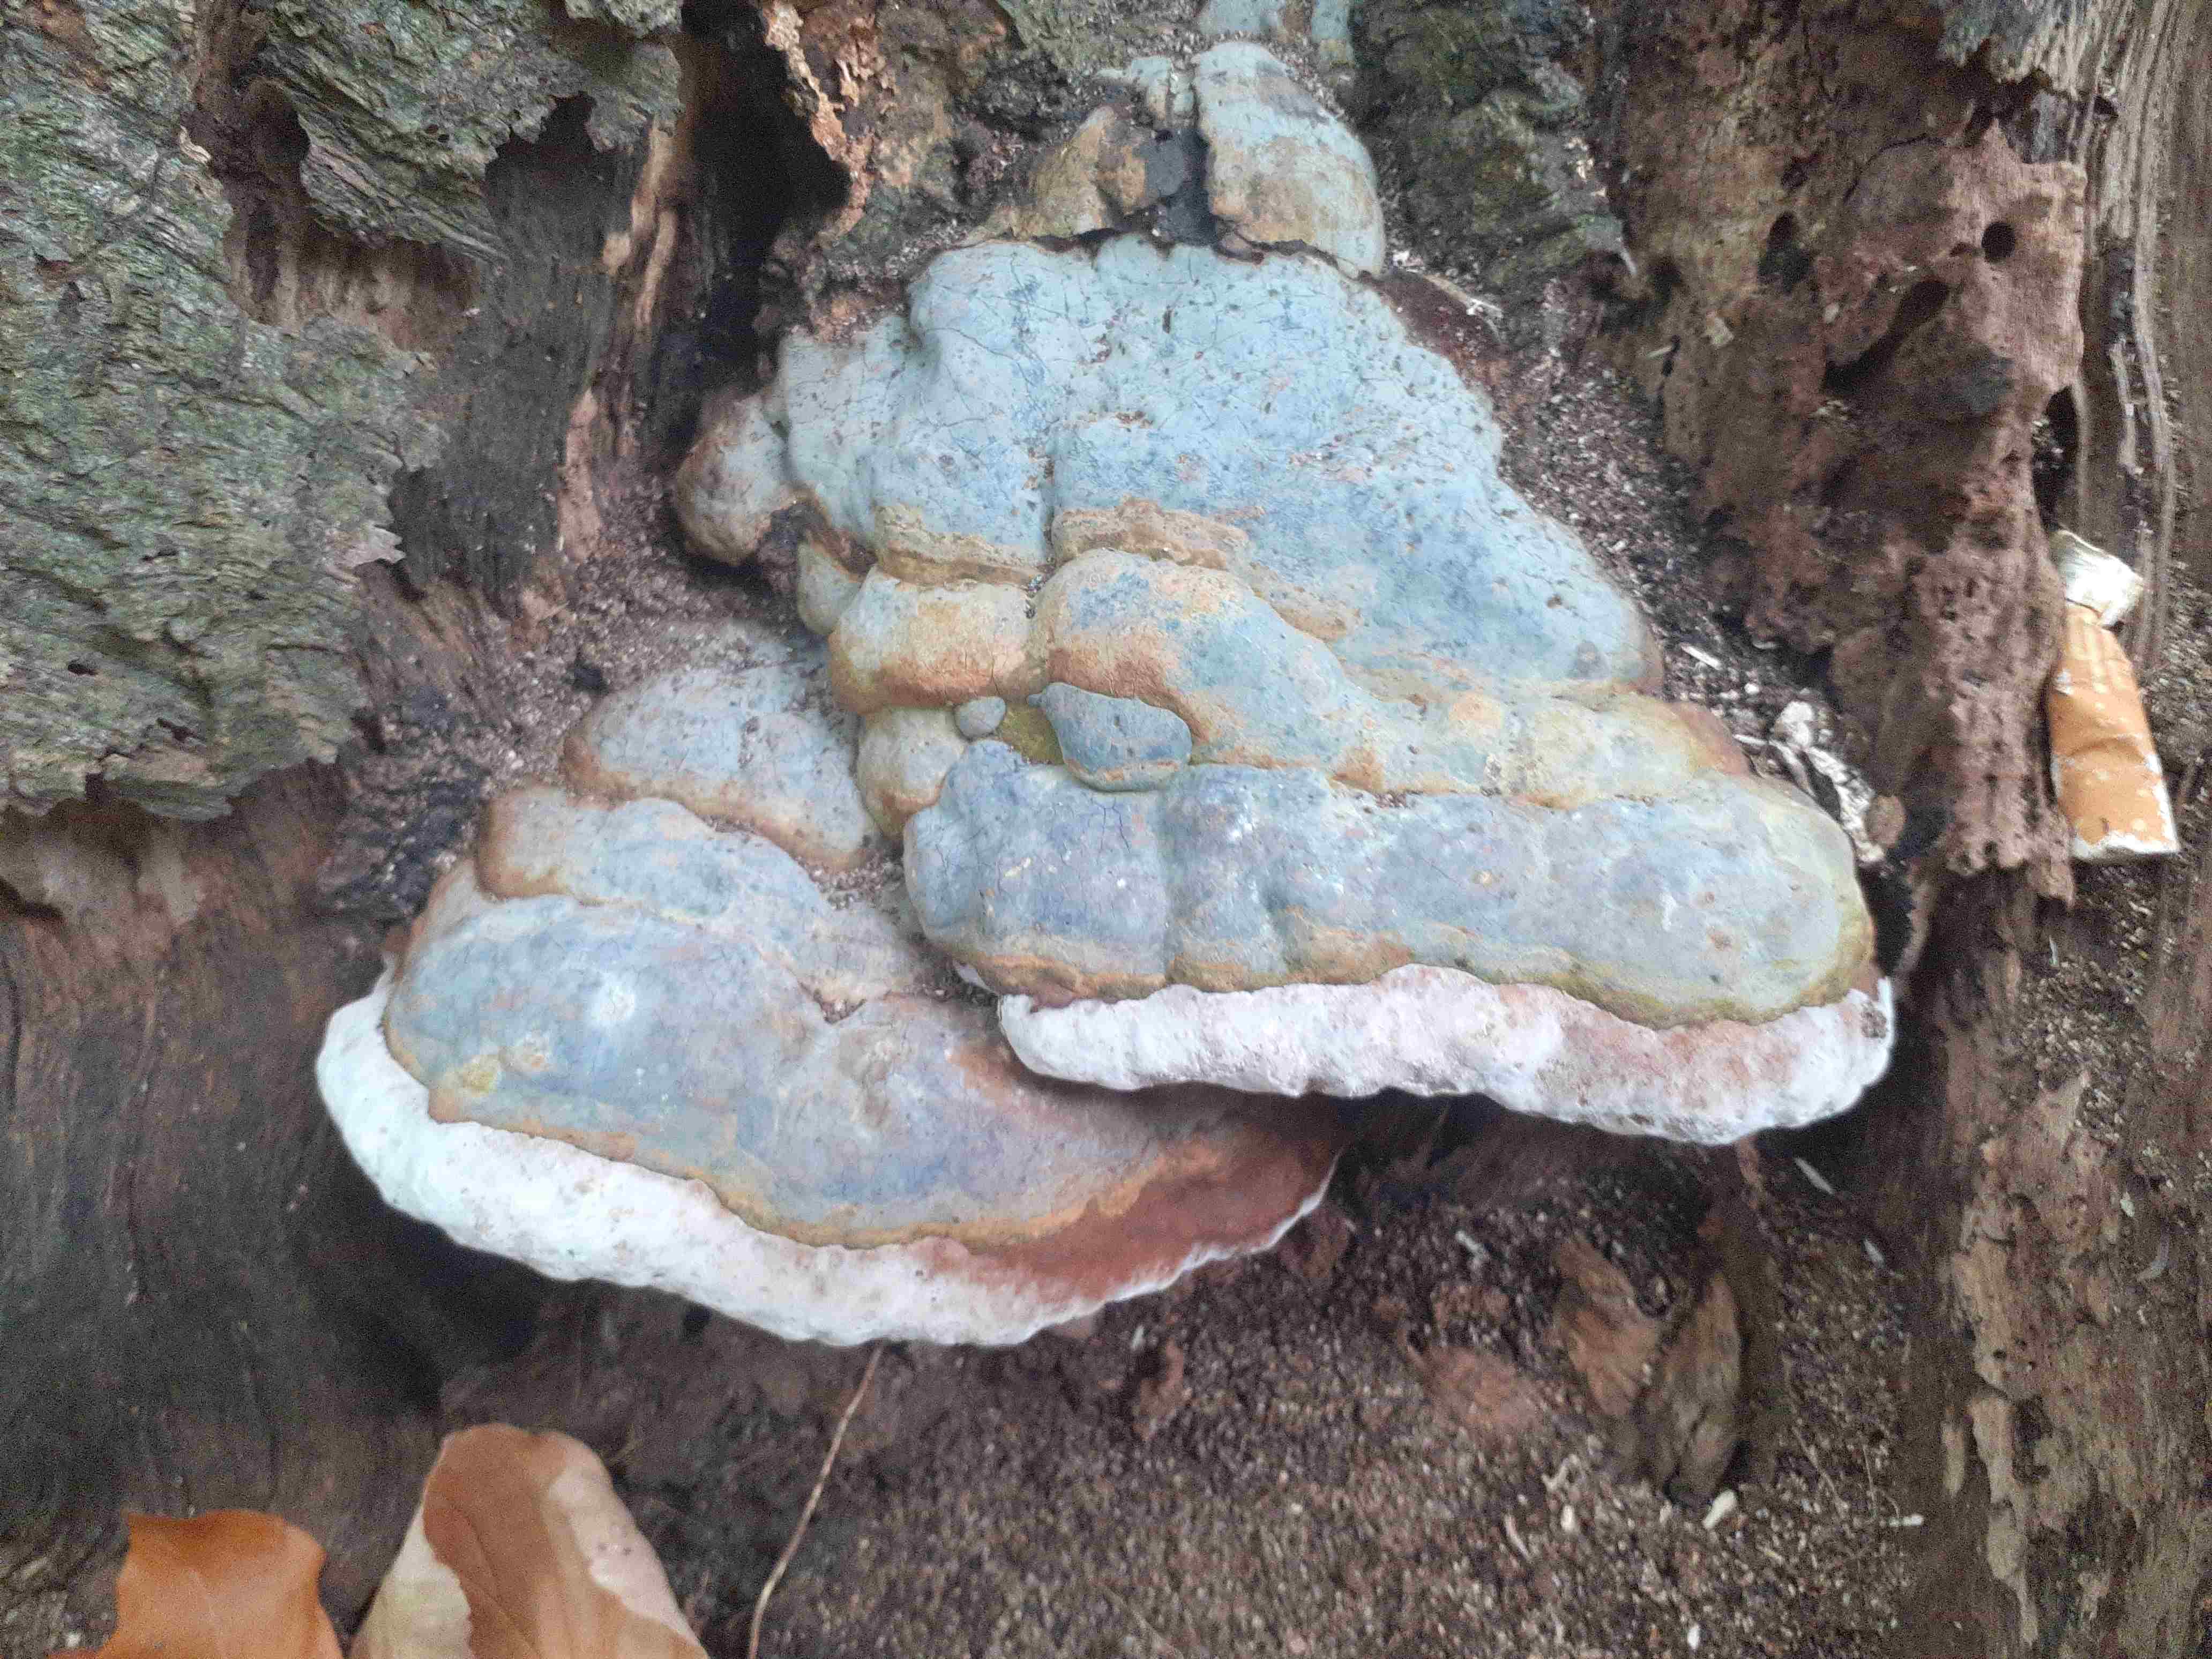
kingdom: Fungi
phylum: Basidiomycota
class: Agaricomycetes
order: Polyporales
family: Polyporaceae
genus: Ganoderma
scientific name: Ganoderma pfeifferi
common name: kobberrød lakporesvamp
